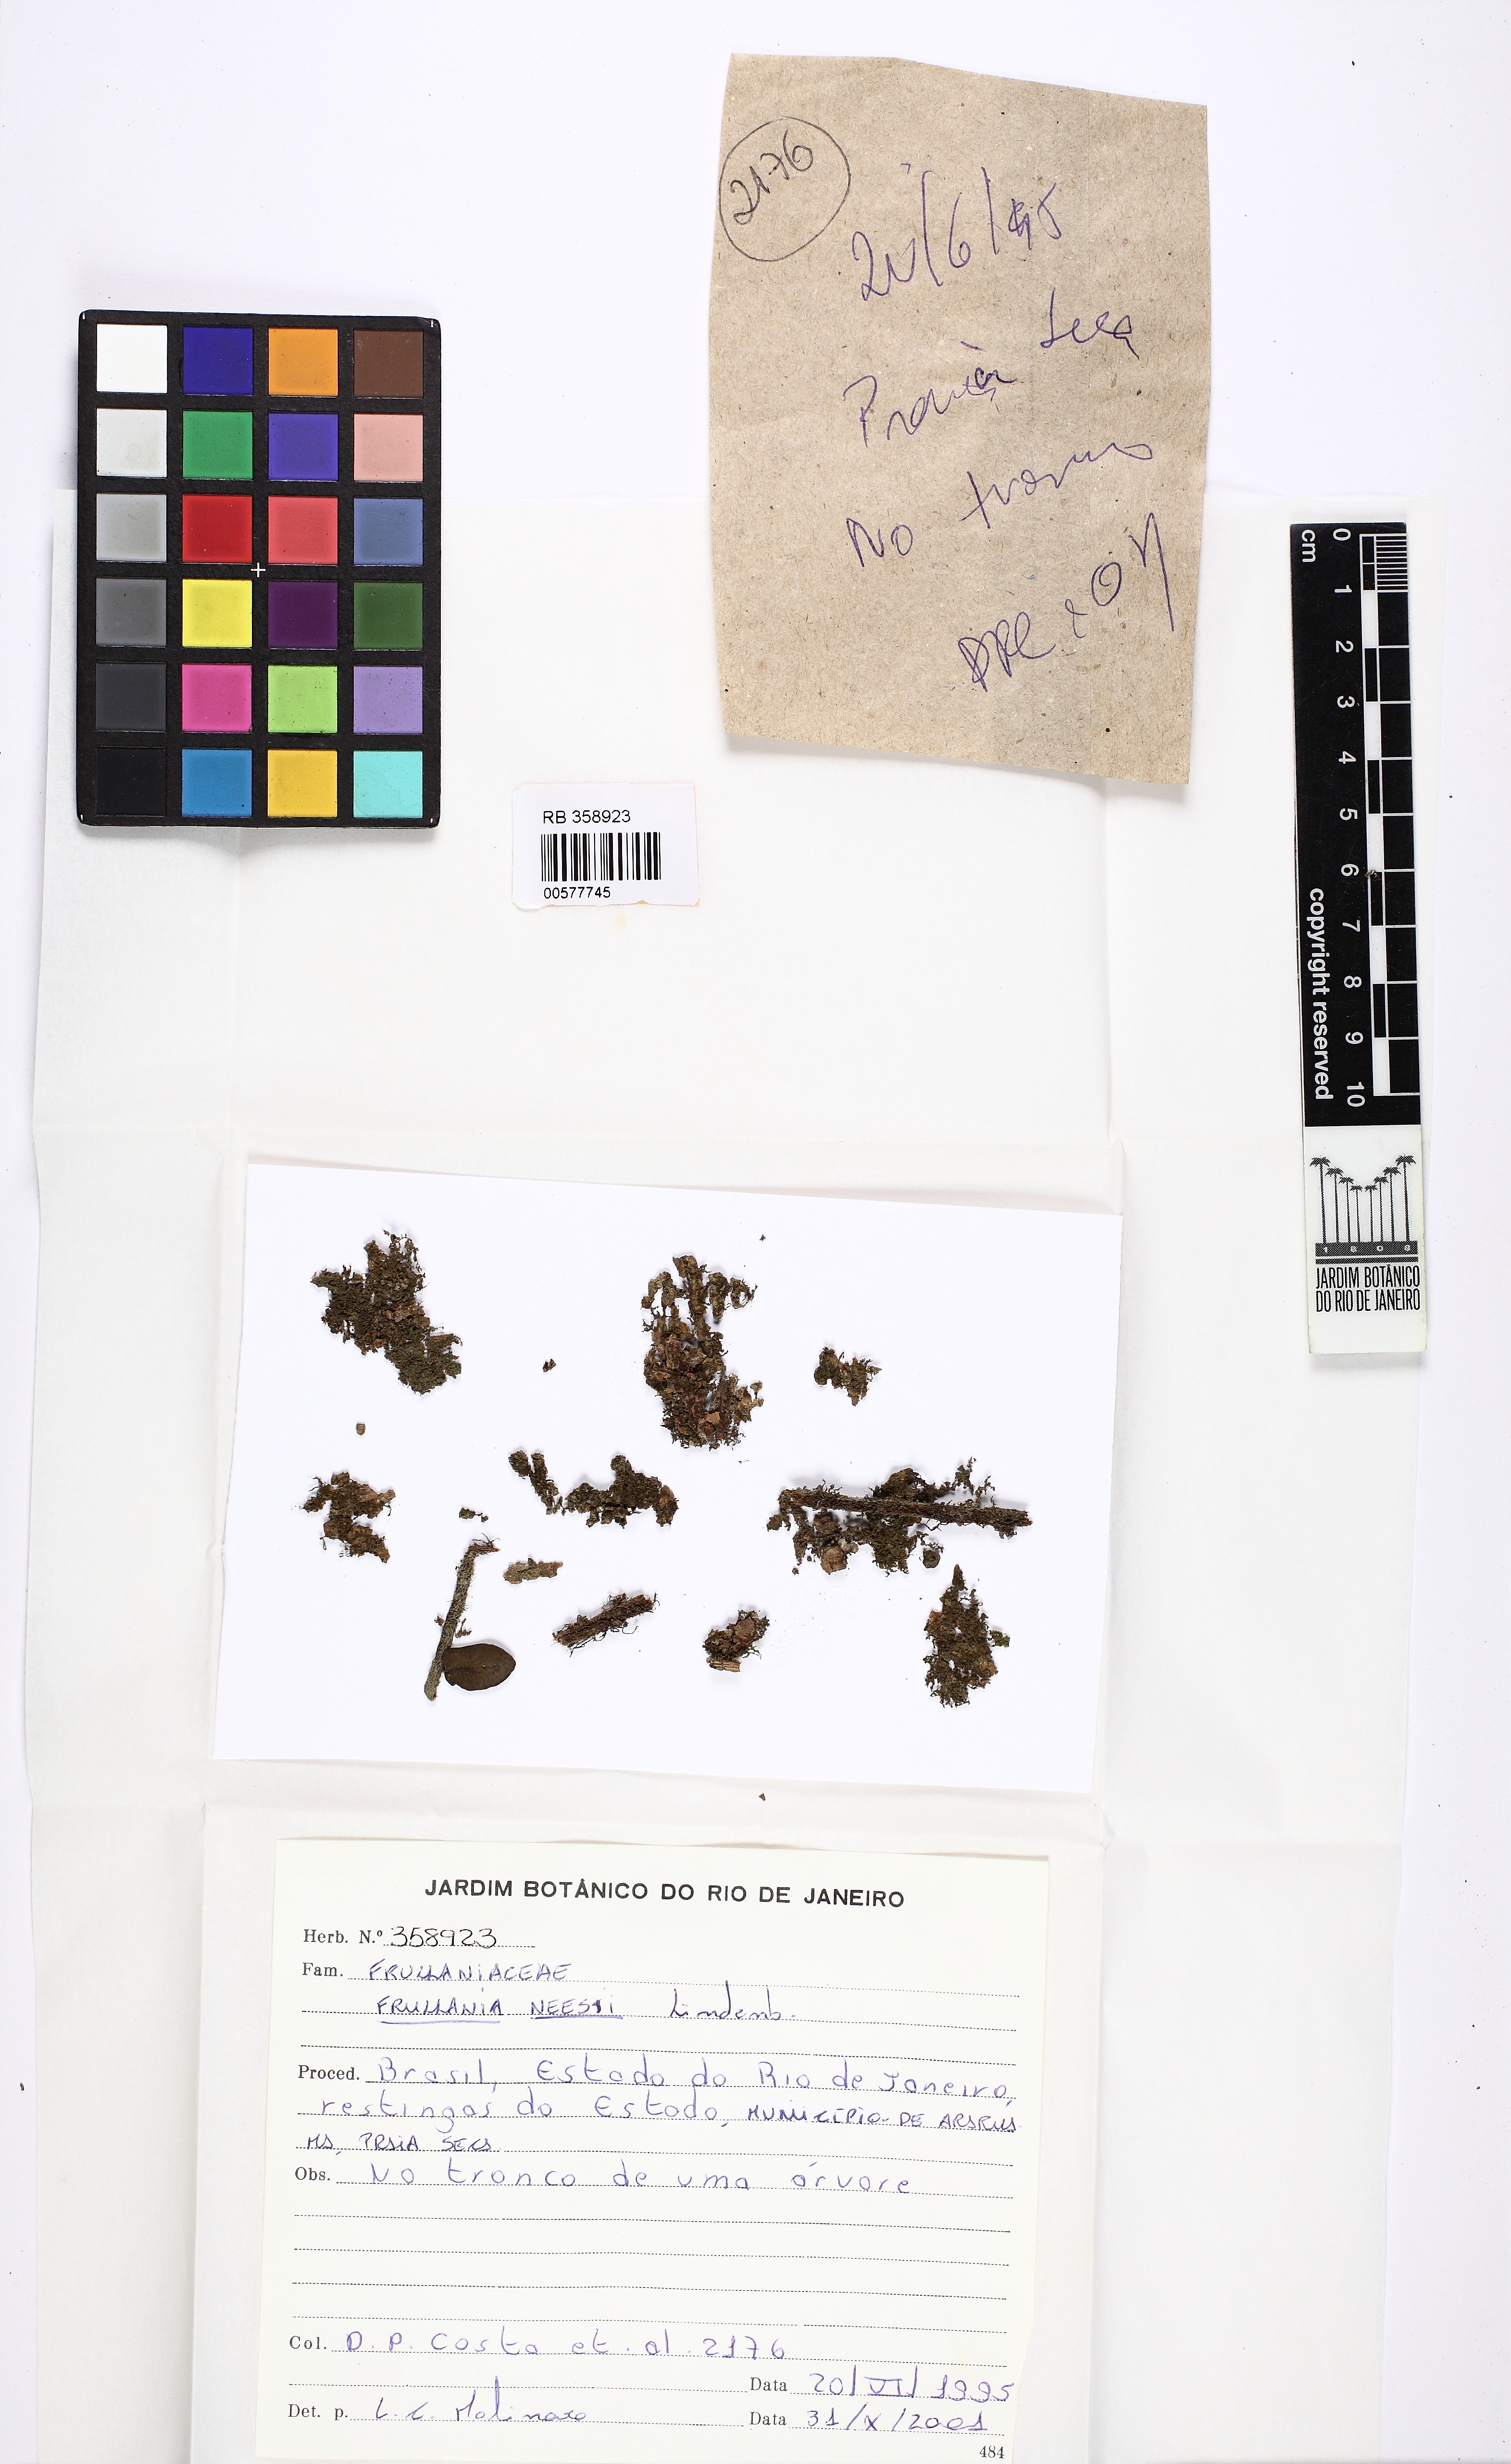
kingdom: Plantae
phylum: Marchantiophyta
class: Jungermanniopsida
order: Porellales
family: Frullaniaceae
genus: Frullania
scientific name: Frullania kunzei
